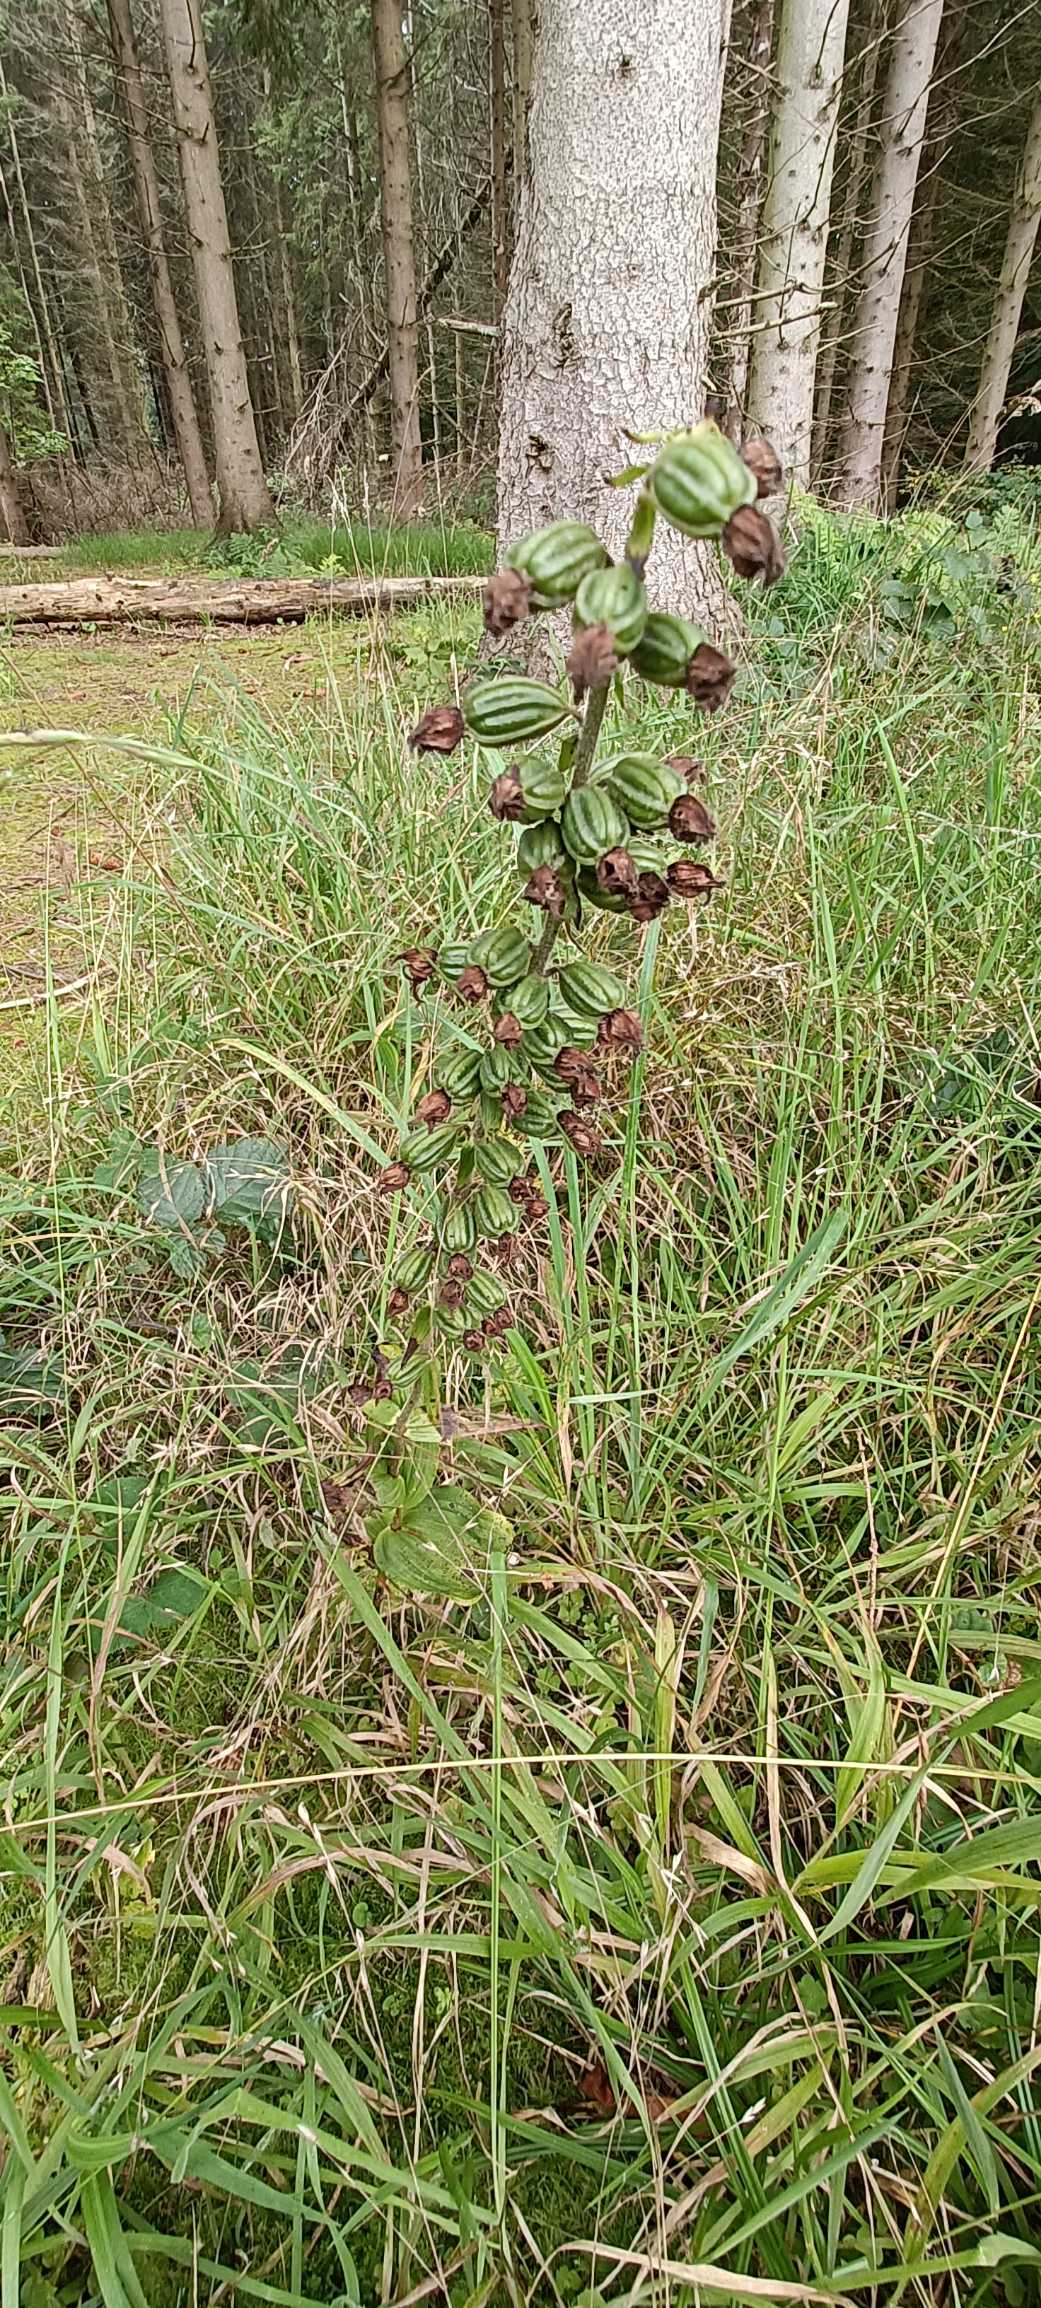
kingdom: Plantae
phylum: Tracheophyta
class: Liliopsida
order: Asparagales
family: Orchidaceae
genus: Epipactis
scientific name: Epipactis helleborine
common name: Skov-hullæbe
